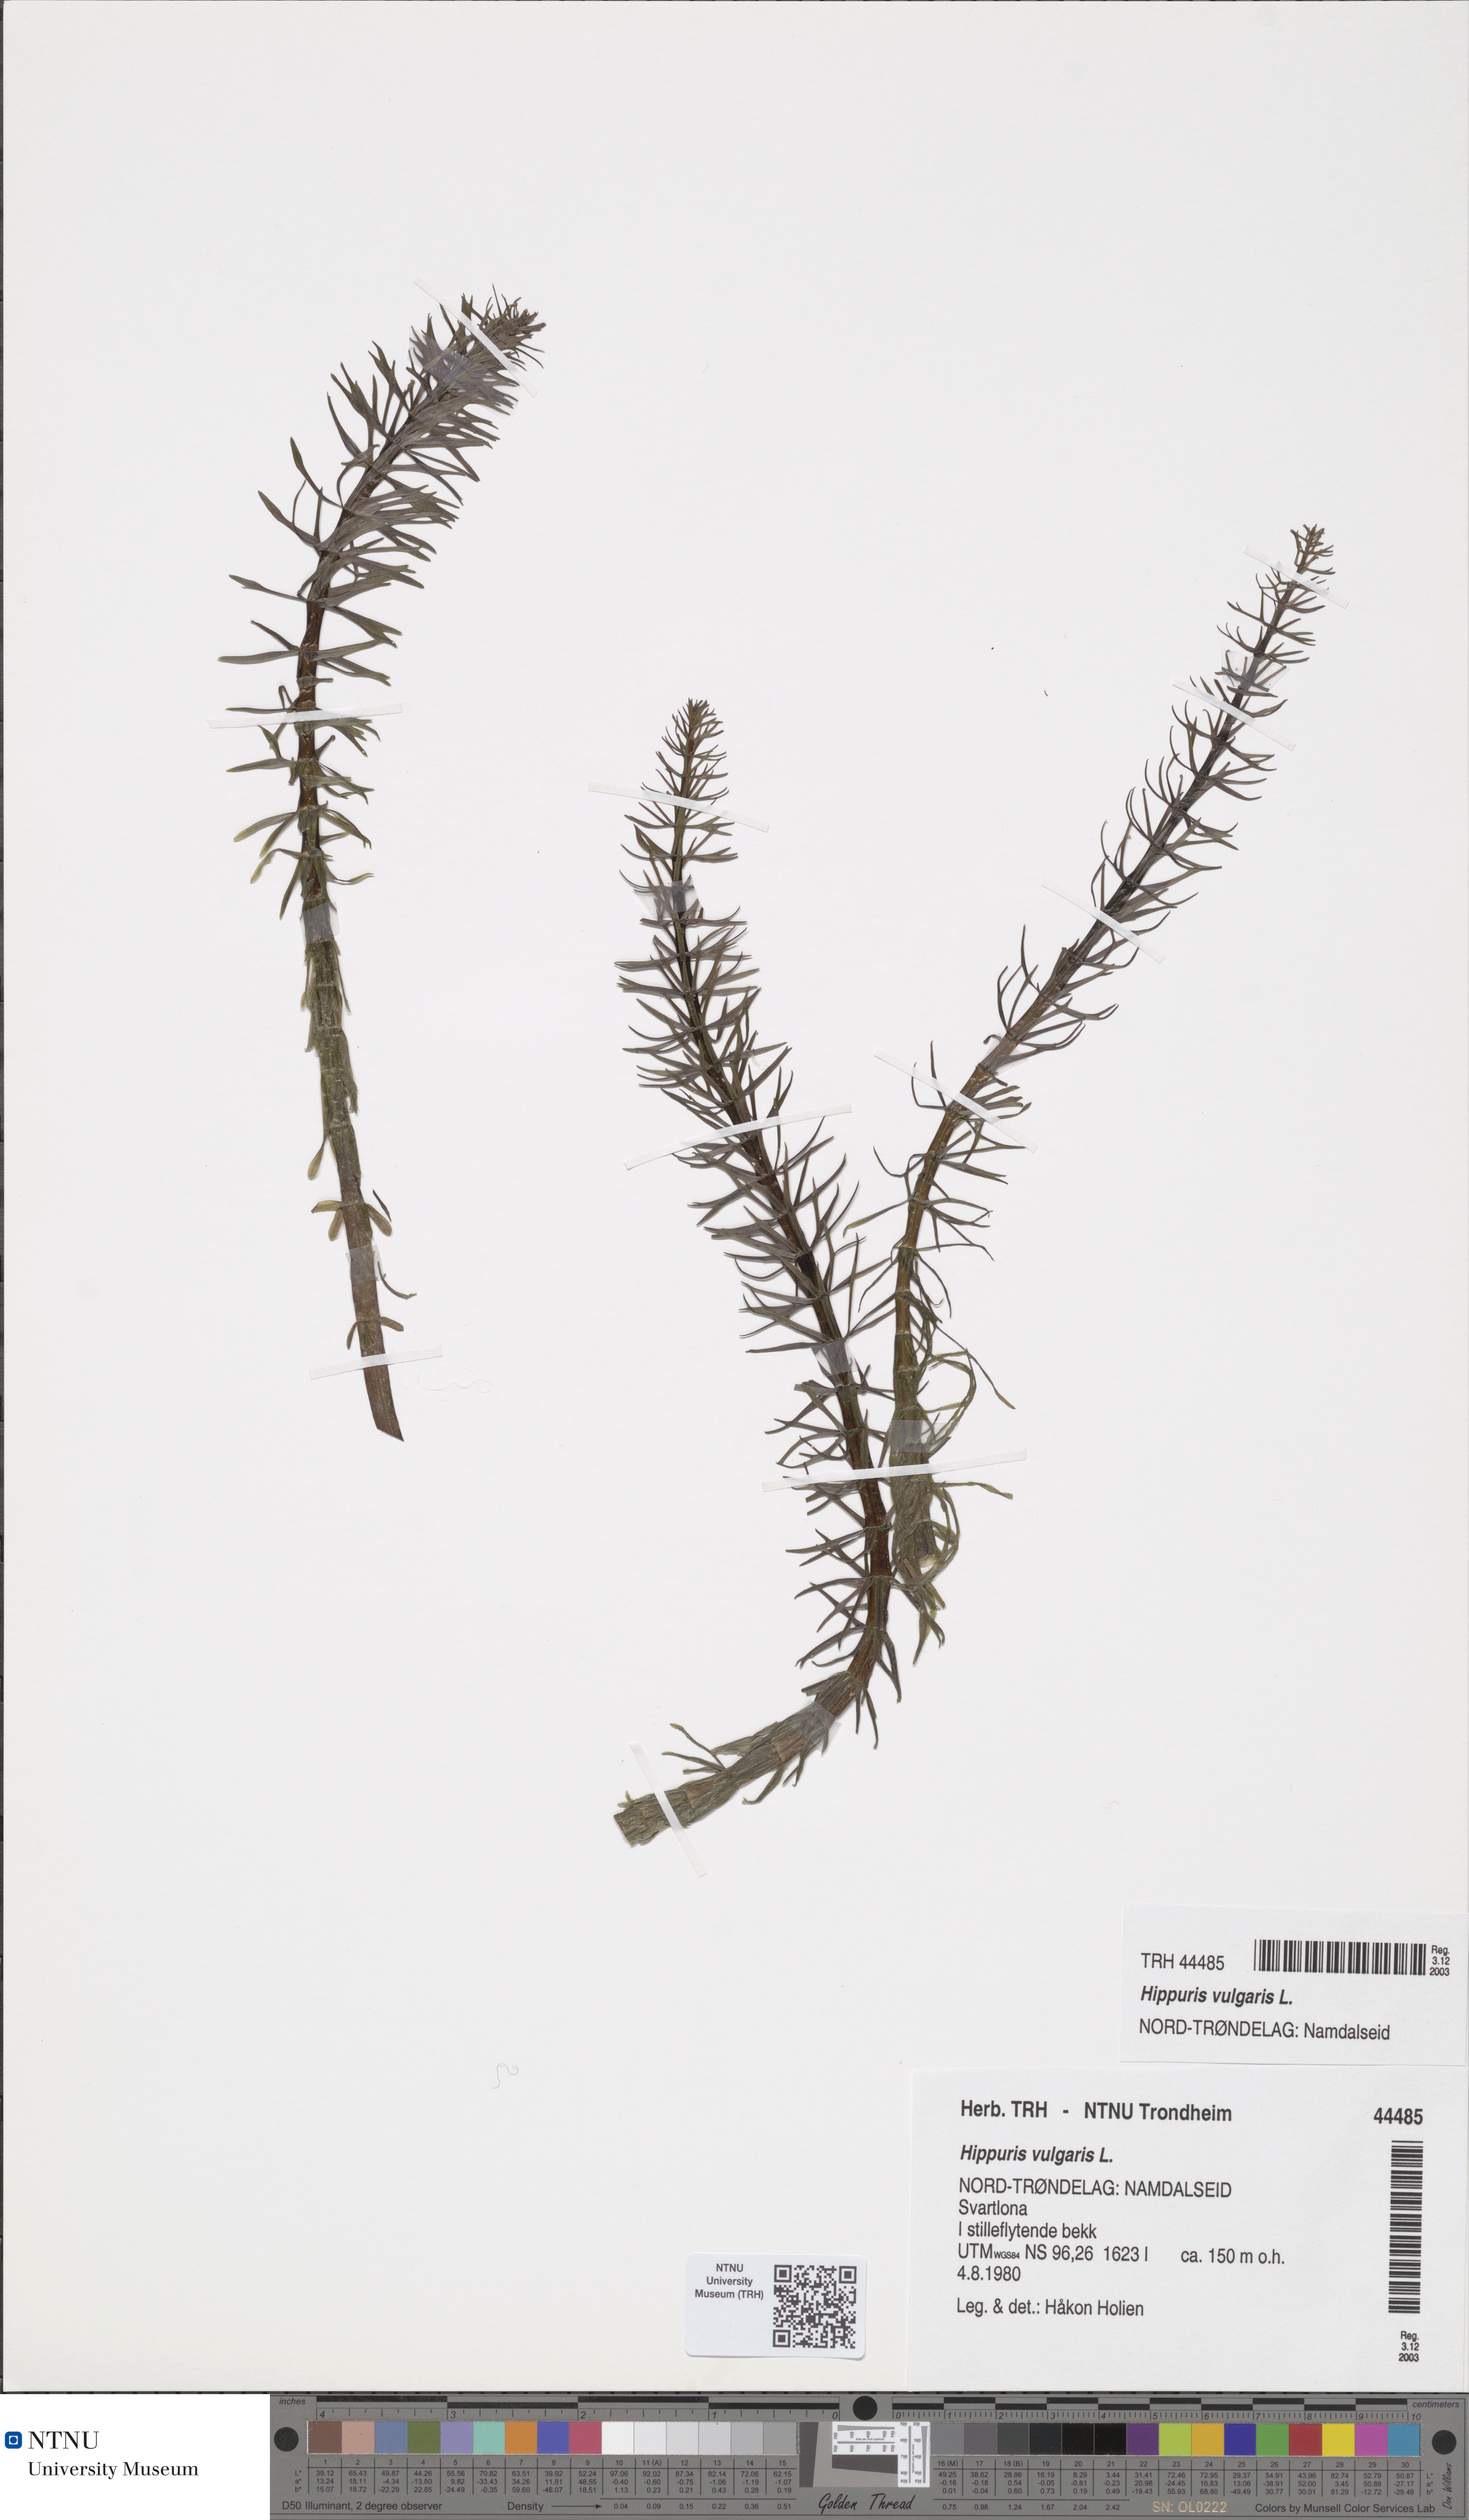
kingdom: Plantae
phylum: Tracheophyta
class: Magnoliopsida
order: Lamiales
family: Plantaginaceae
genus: Hippuris
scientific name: Hippuris vulgaris
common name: Mare's-tail
